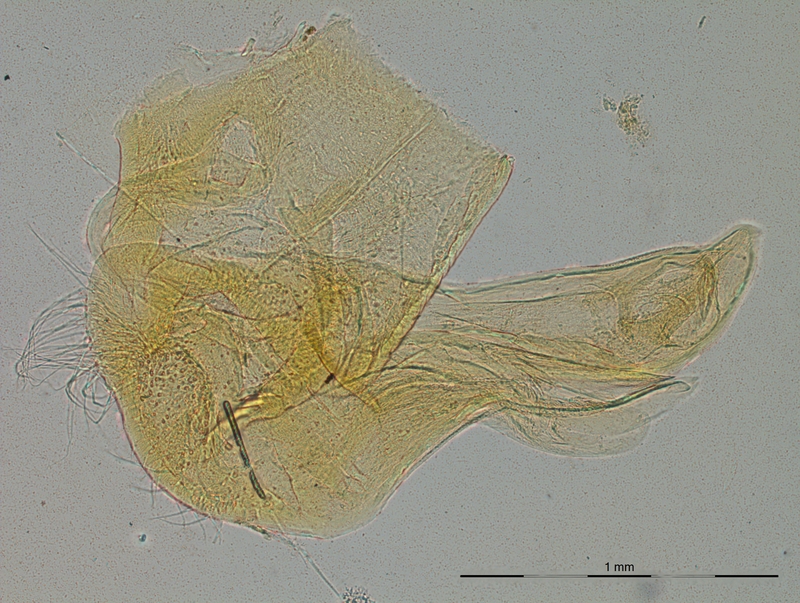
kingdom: Animalia
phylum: Arthropoda
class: Diplopoda
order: Polydesmida
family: Chelodesmidae
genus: Brasilodesmus
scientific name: Brasilodesmus corrugatus
